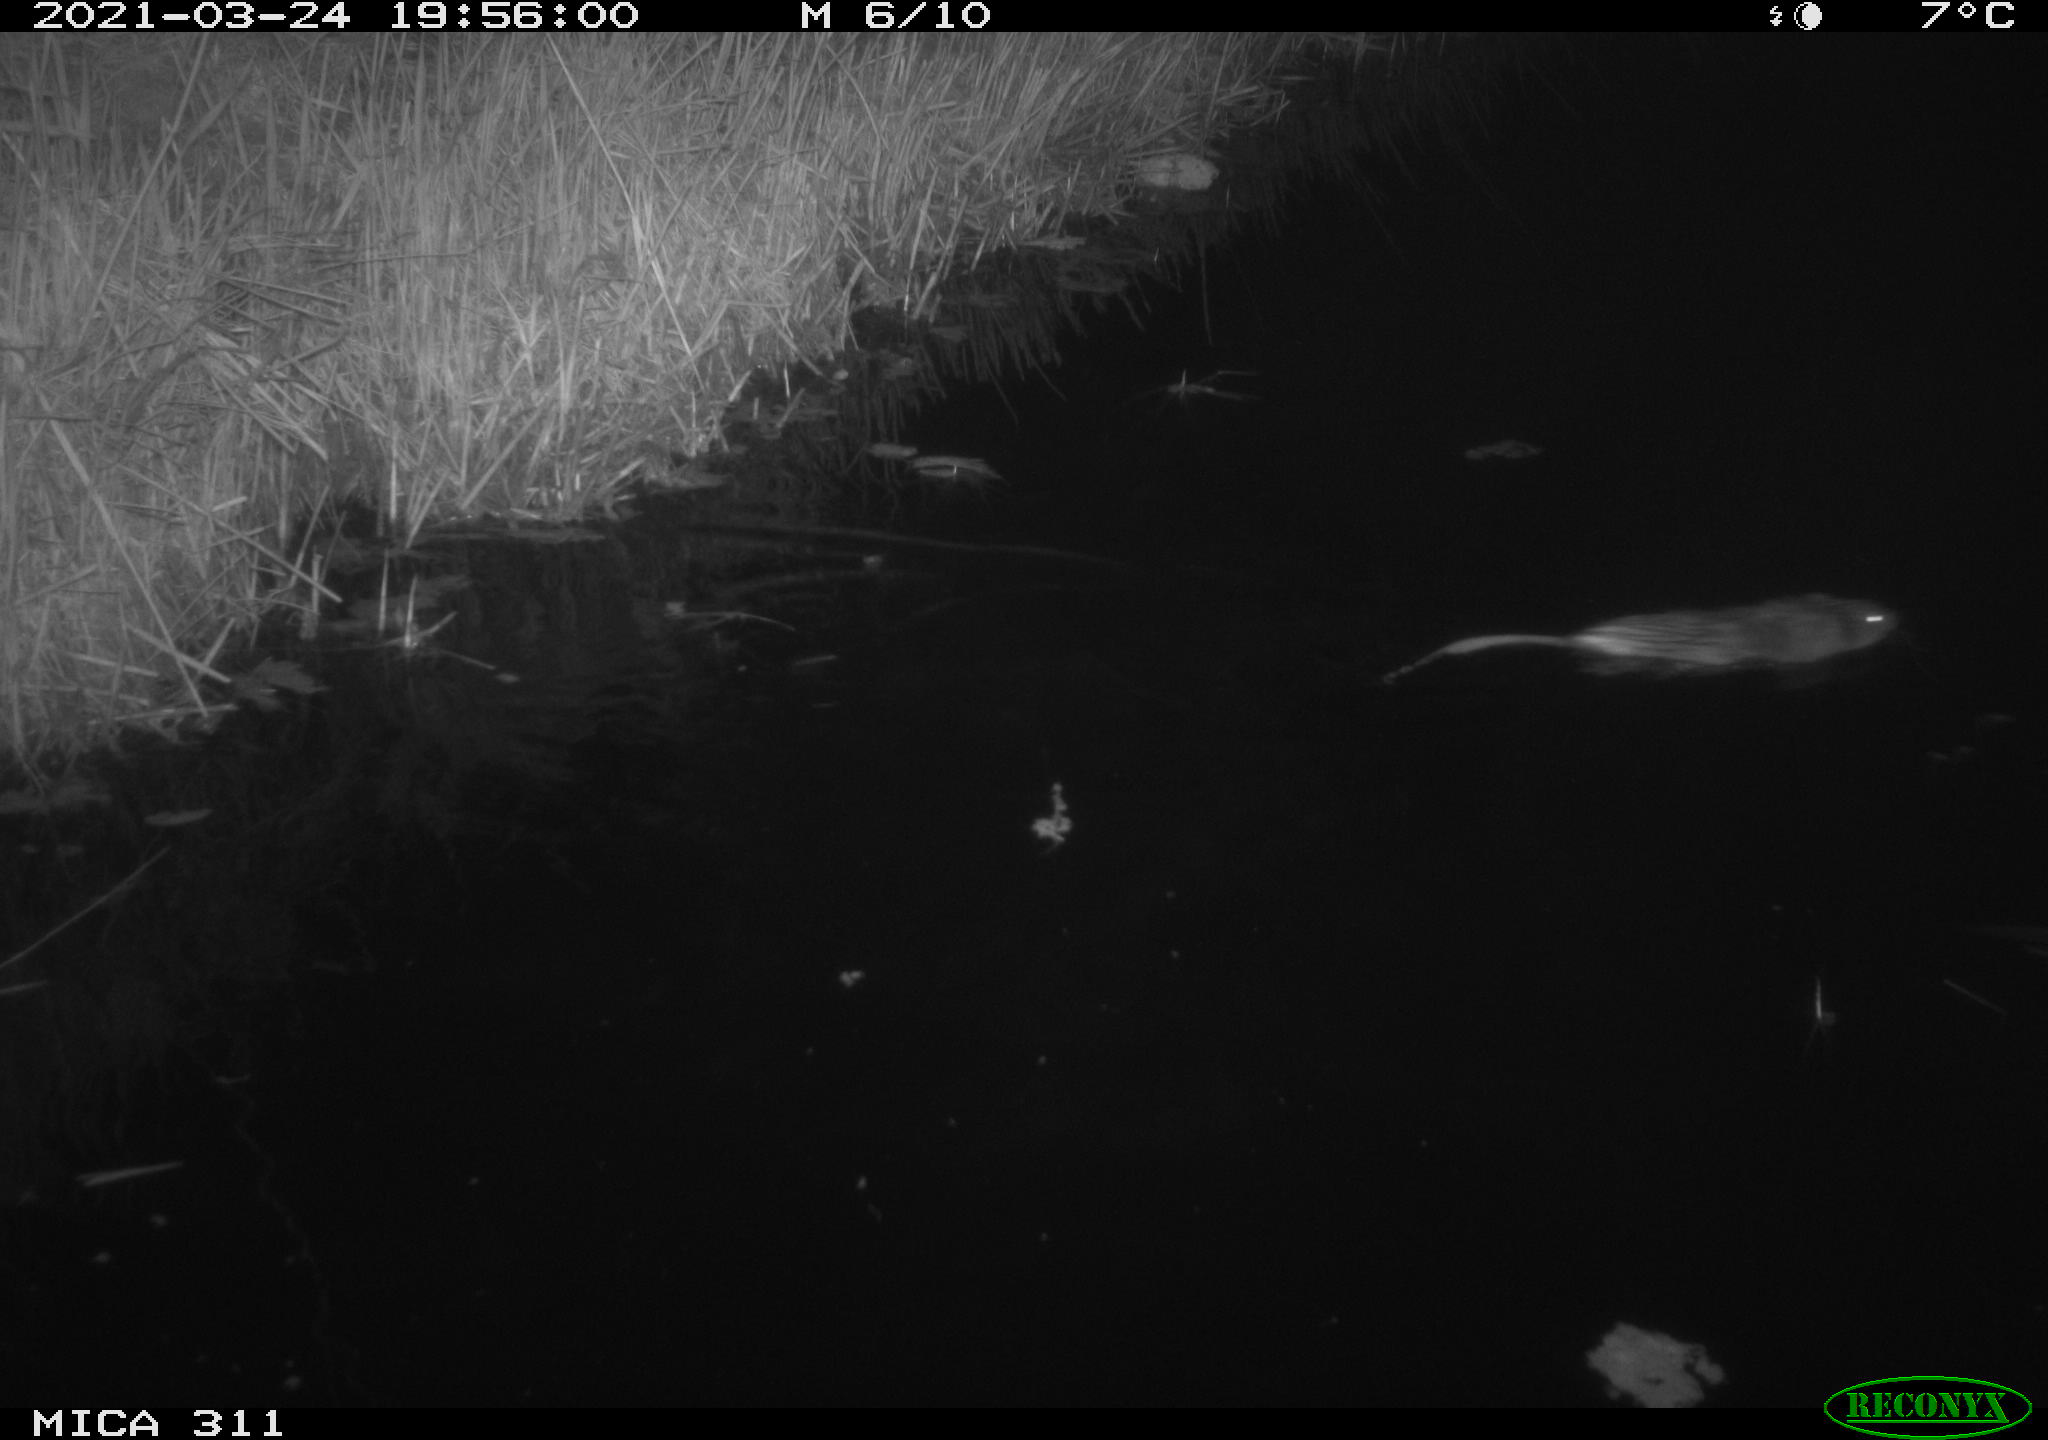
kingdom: Animalia
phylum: Chordata
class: Mammalia
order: Rodentia
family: Cricetidae
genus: Ondatra
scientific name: Ondatra zibethicus
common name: Muskrat
